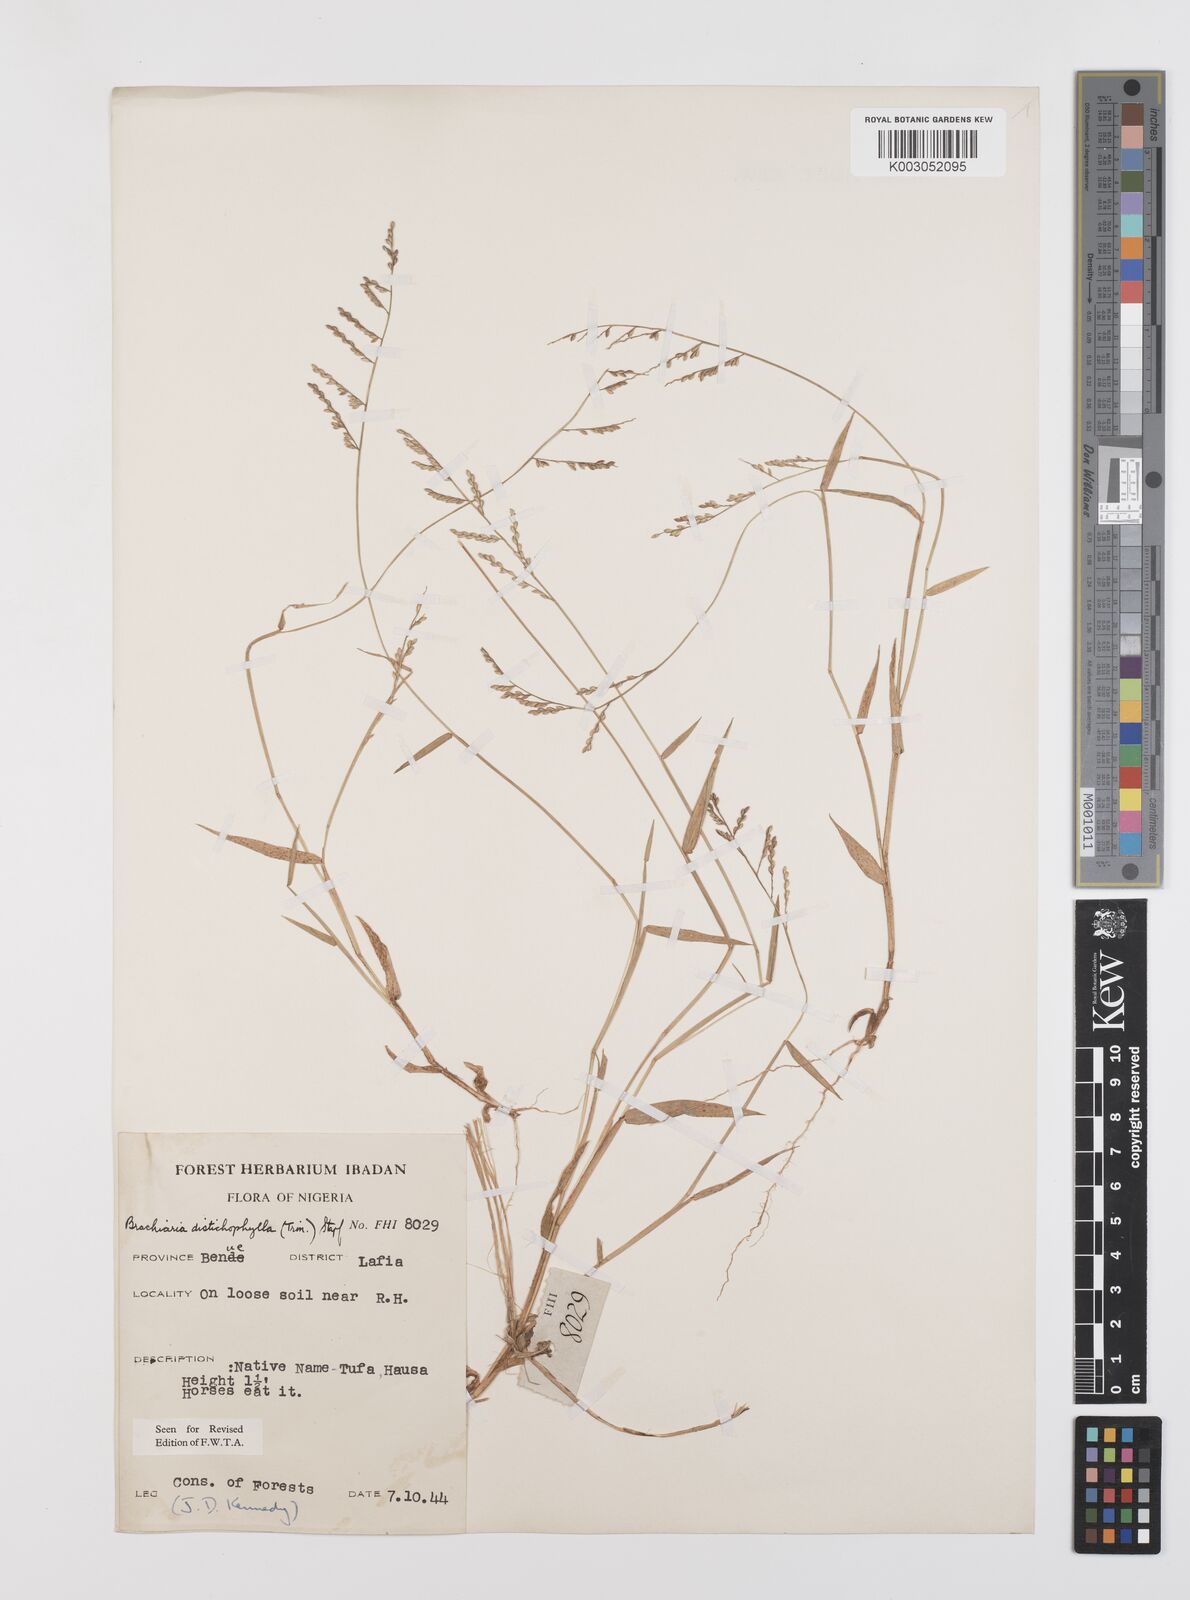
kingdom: Plantae
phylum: Tracheophyta
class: Liliopsida
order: Poales
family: Poaceae
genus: Urochloa
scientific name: Urochloa villosa
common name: Hairy signalgrass
